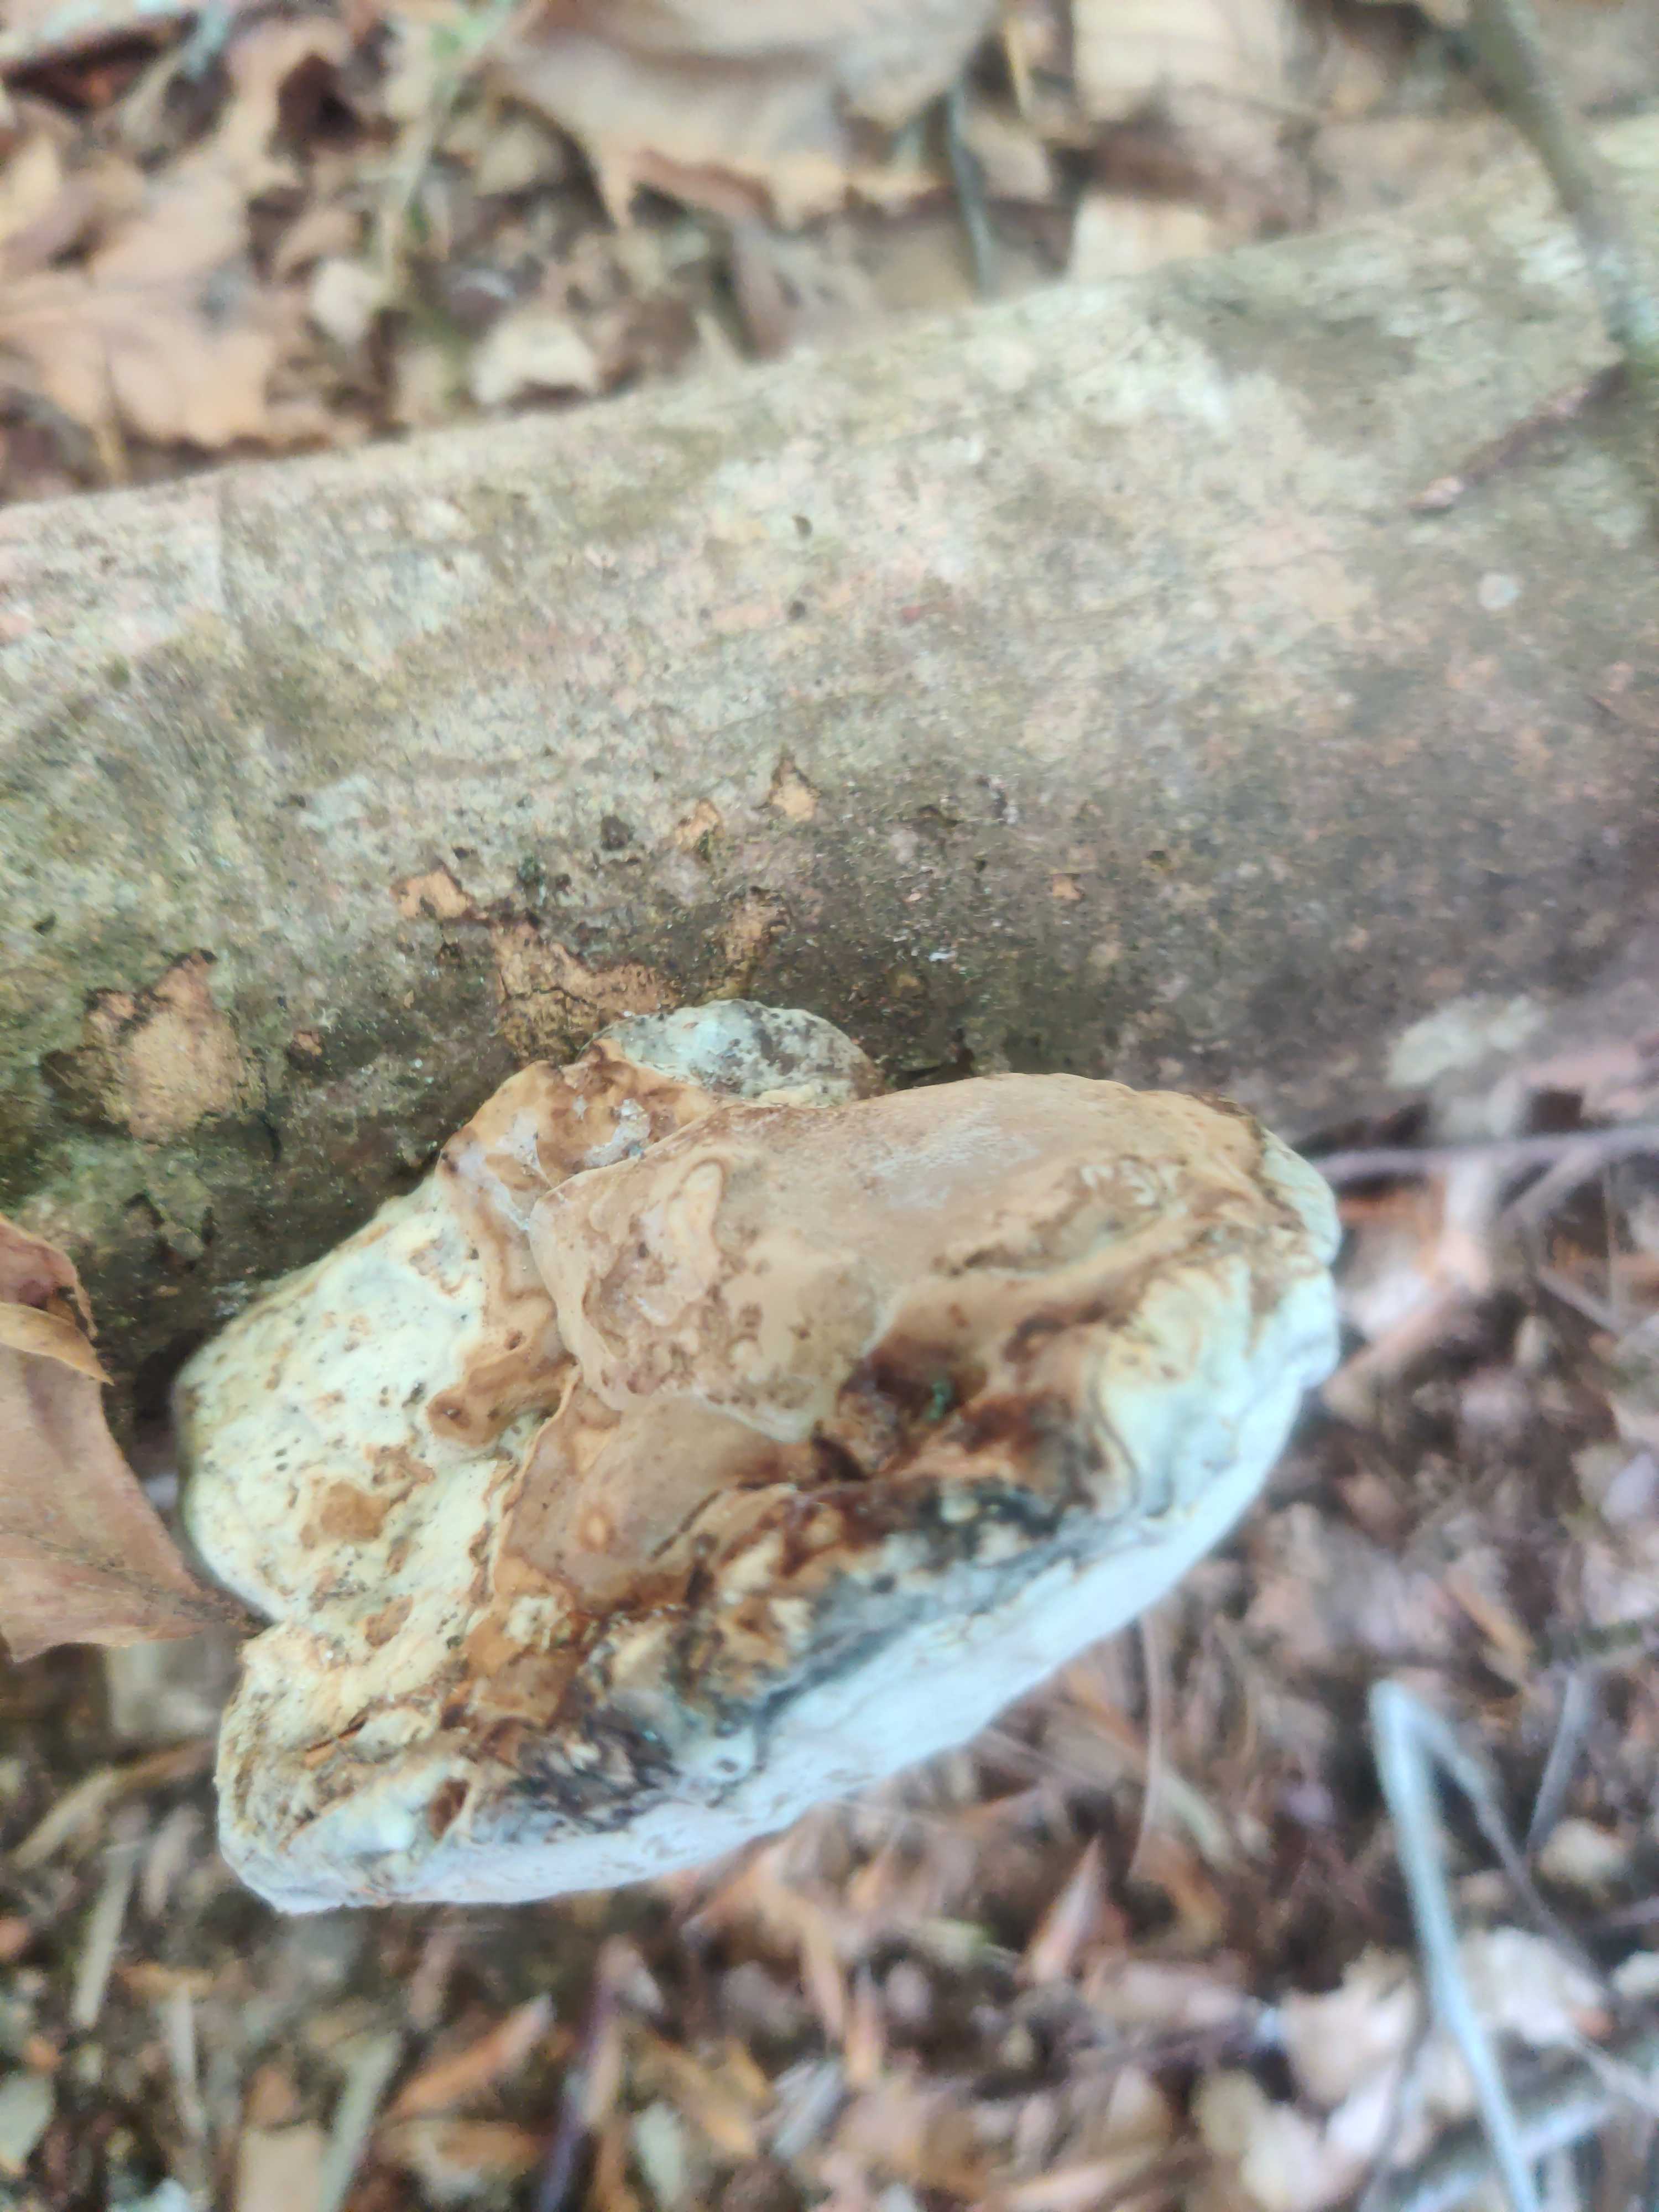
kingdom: Fungi
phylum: Basidiomycota
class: Agaricomycetes
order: Polyporales
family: Polyporaceae
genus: Fomes
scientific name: Fomes fomentarius
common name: tøndersvamp
